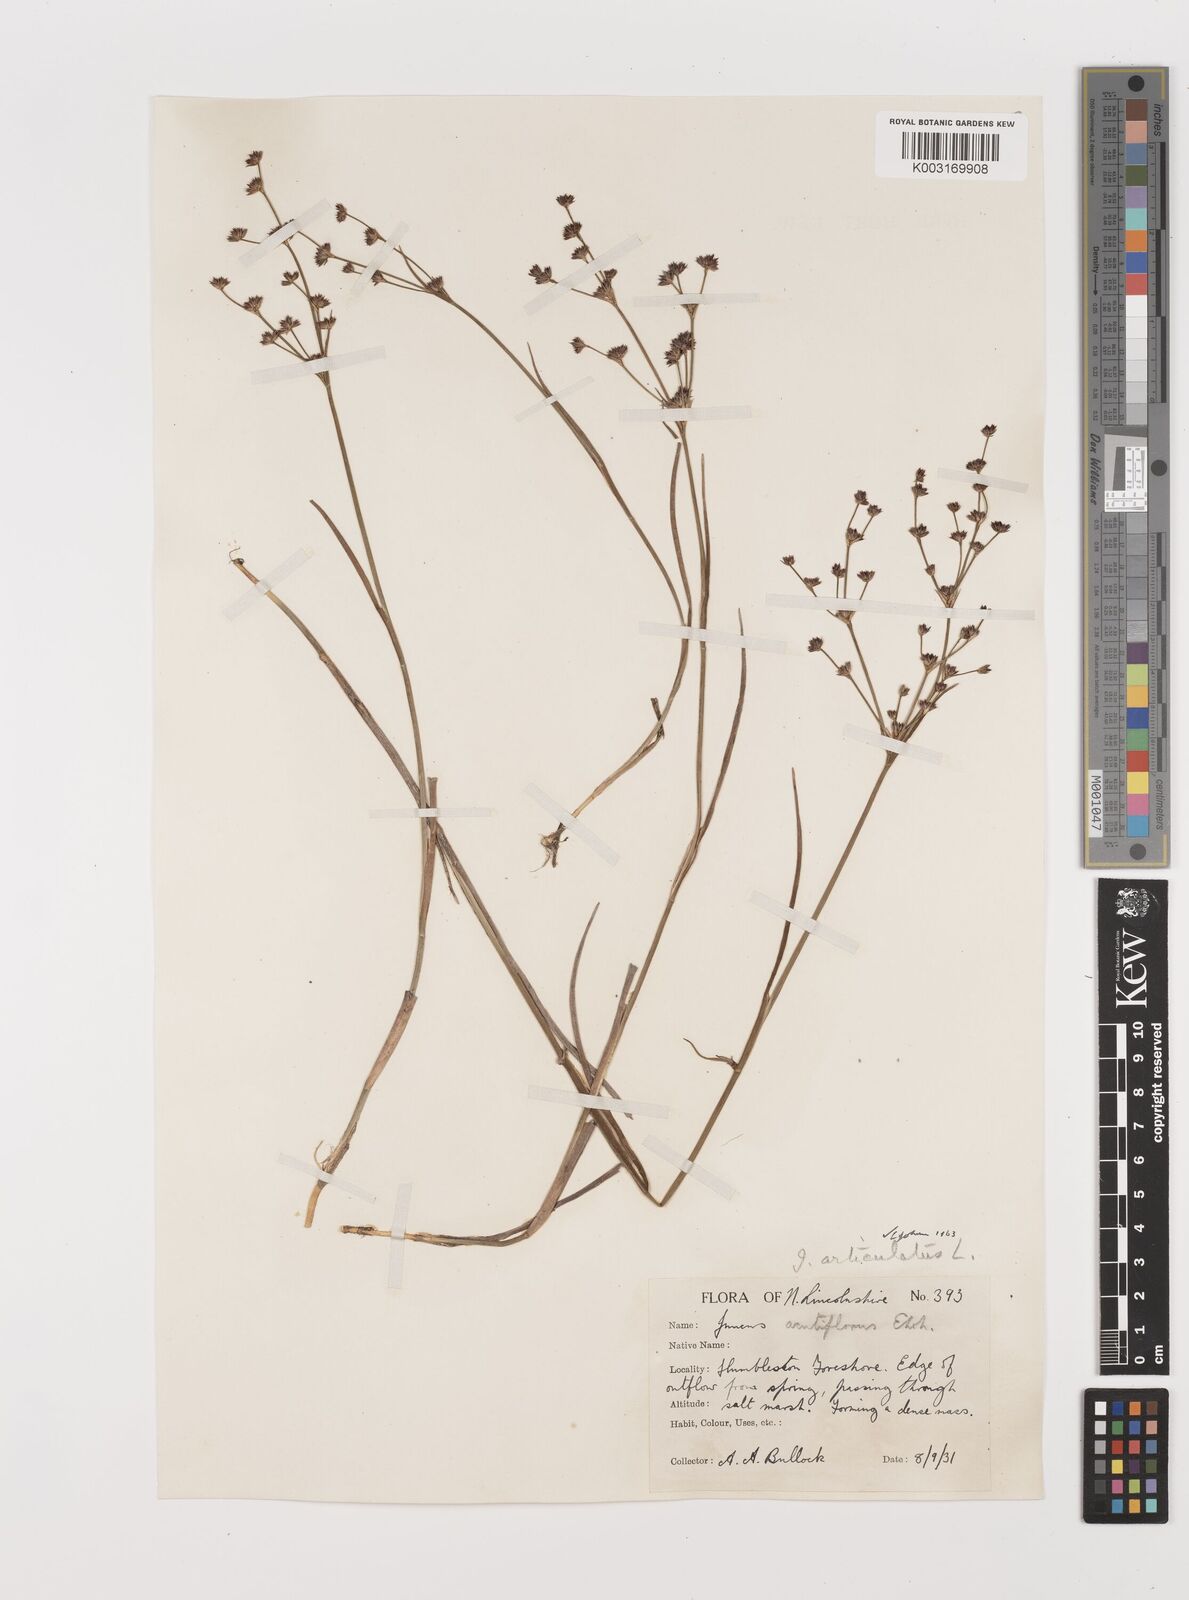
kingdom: Plantae
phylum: Tracheophyta
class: Liliopsida
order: Poales
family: Juncaceae
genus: Juncus
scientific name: Juncus articulatus
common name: Jointed rush
